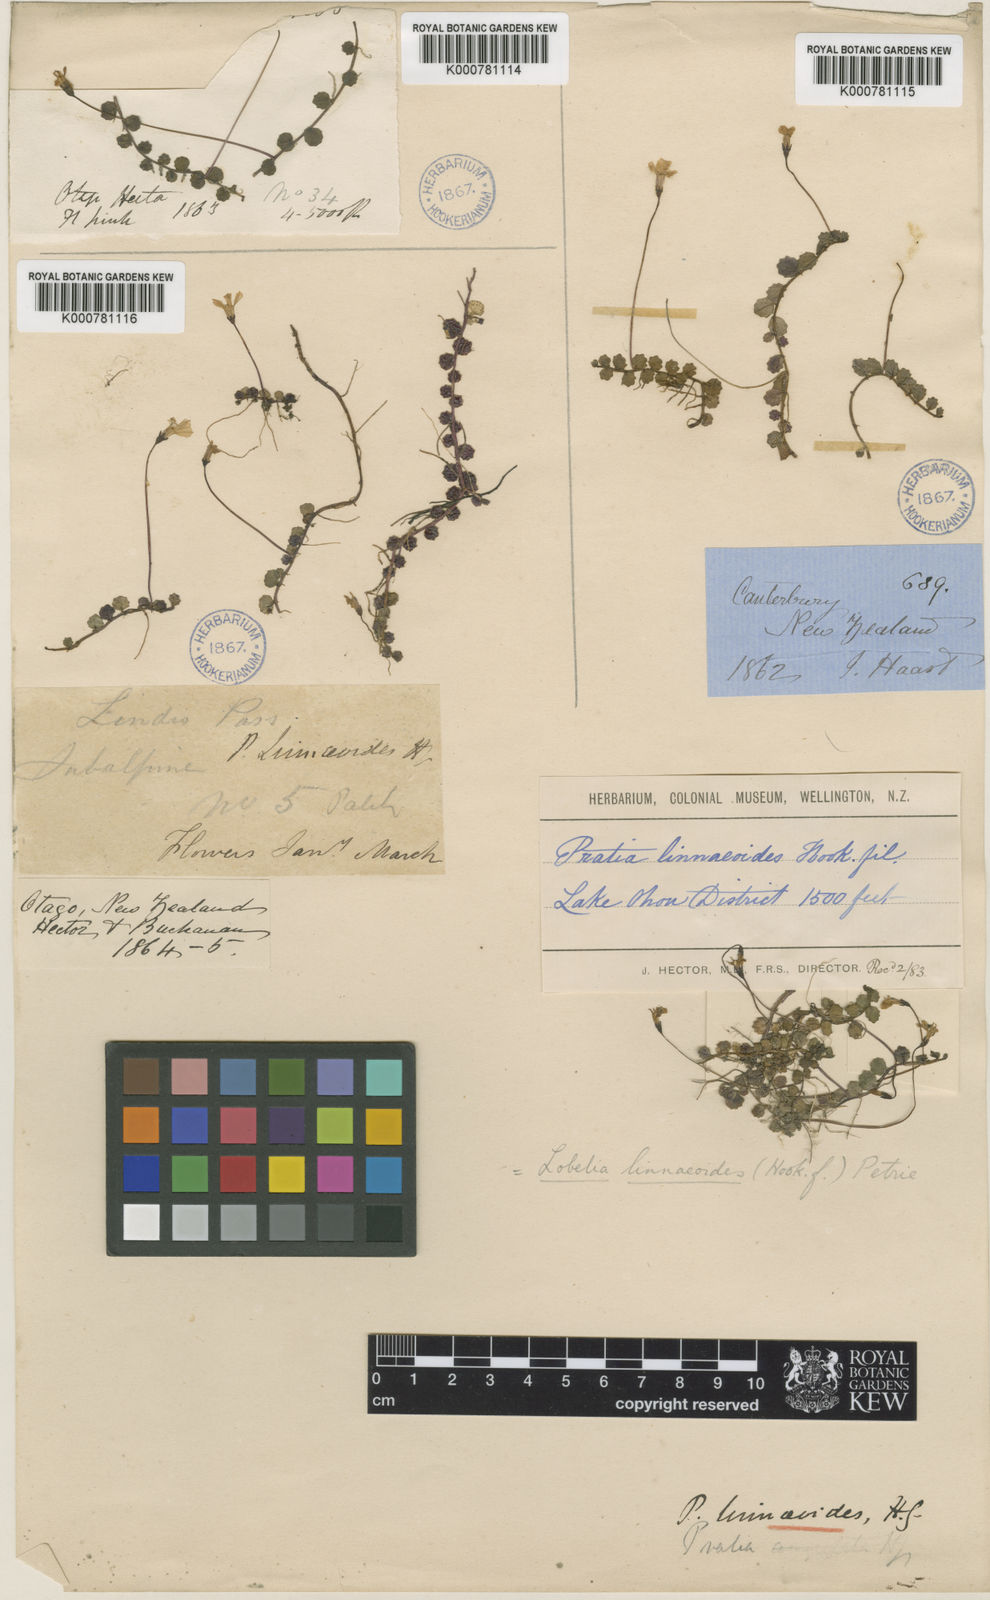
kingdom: Plantae
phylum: Tracheophyta
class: Magnoliopsida
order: Asterales
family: Campanulaceae
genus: Lobelia
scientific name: Lobelia angulata
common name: Lawn lobelia
